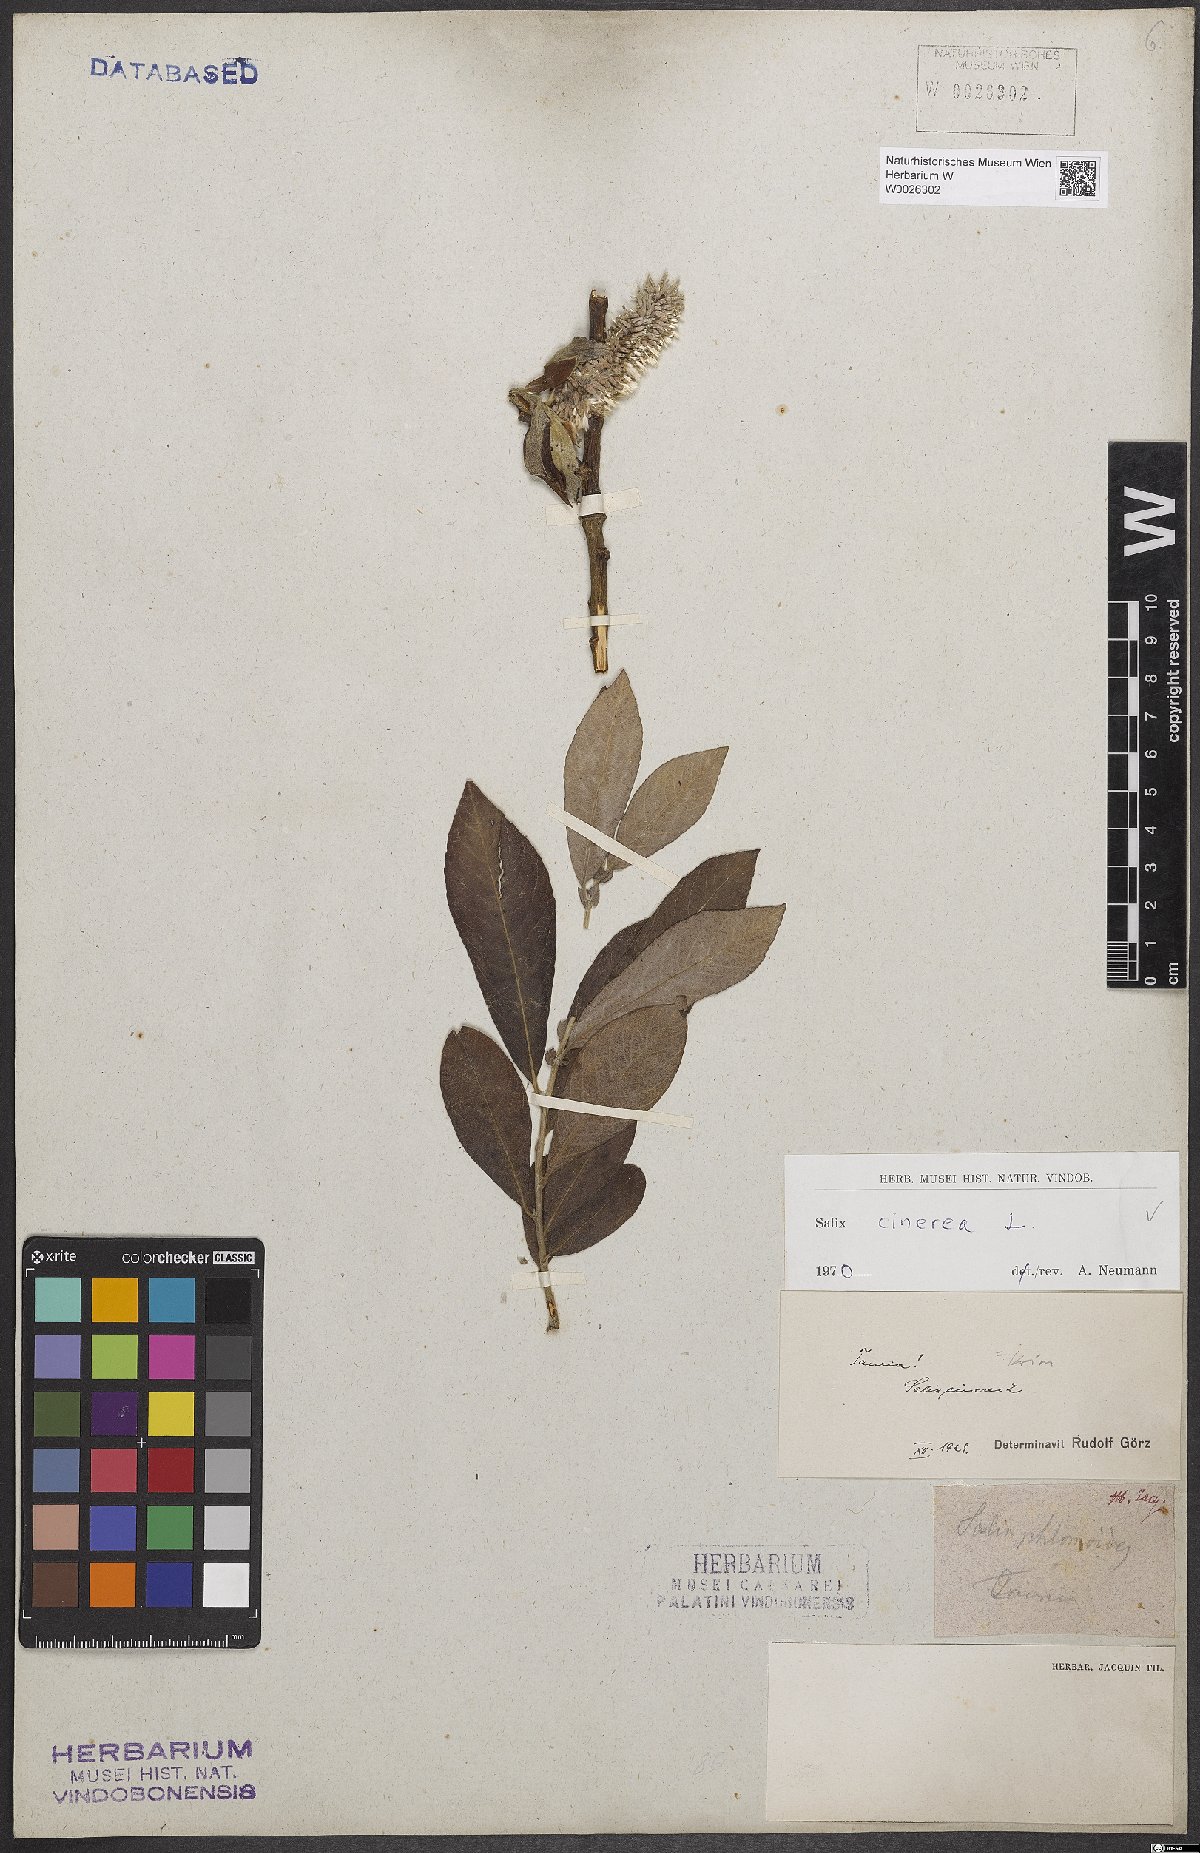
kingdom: Plantae
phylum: Tracheophyta
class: Magnoliopsida
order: Malpighiales
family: Salicaceae
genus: Salix
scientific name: Salix cinerea
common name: Common sallow
